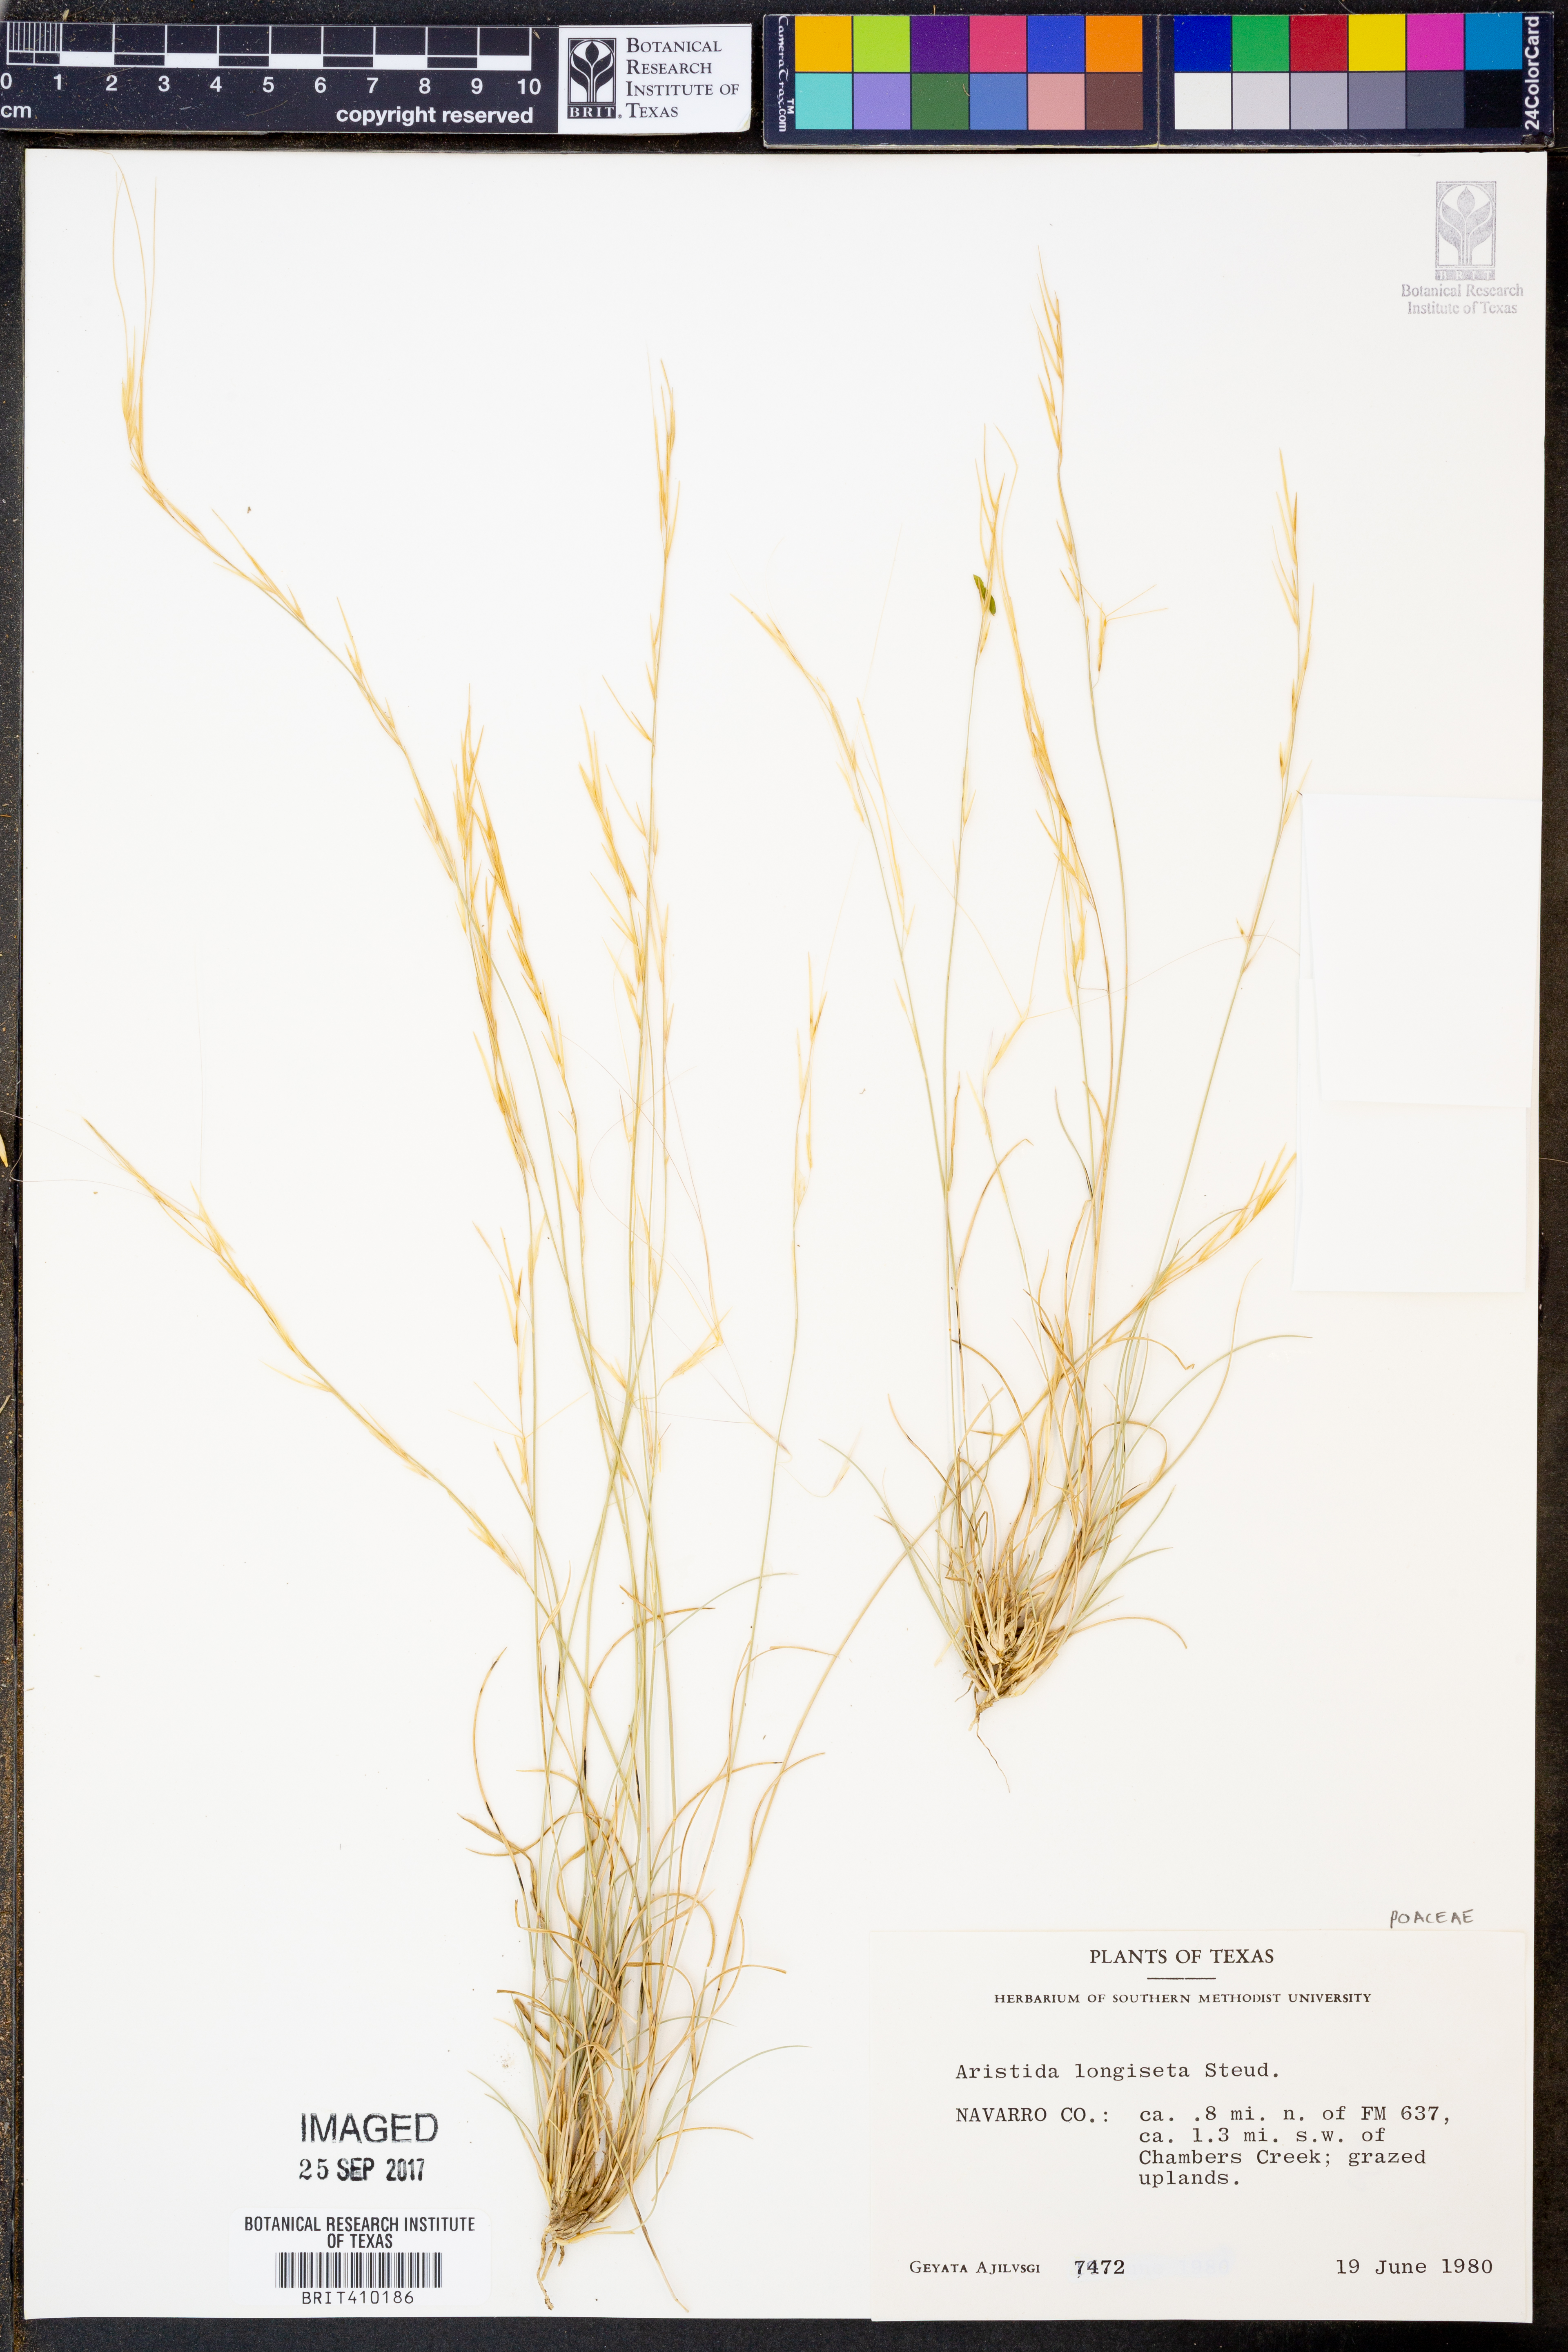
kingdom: Plantae
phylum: Tracheophyta
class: Liliopsida
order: Poales
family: Poaceae
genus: Aristida
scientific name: Aristida longiseta
